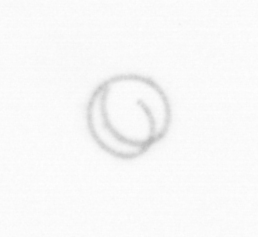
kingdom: Chromista
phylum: Ochrophyta
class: Bacillariophyceae
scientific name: Bacillariophyceae
